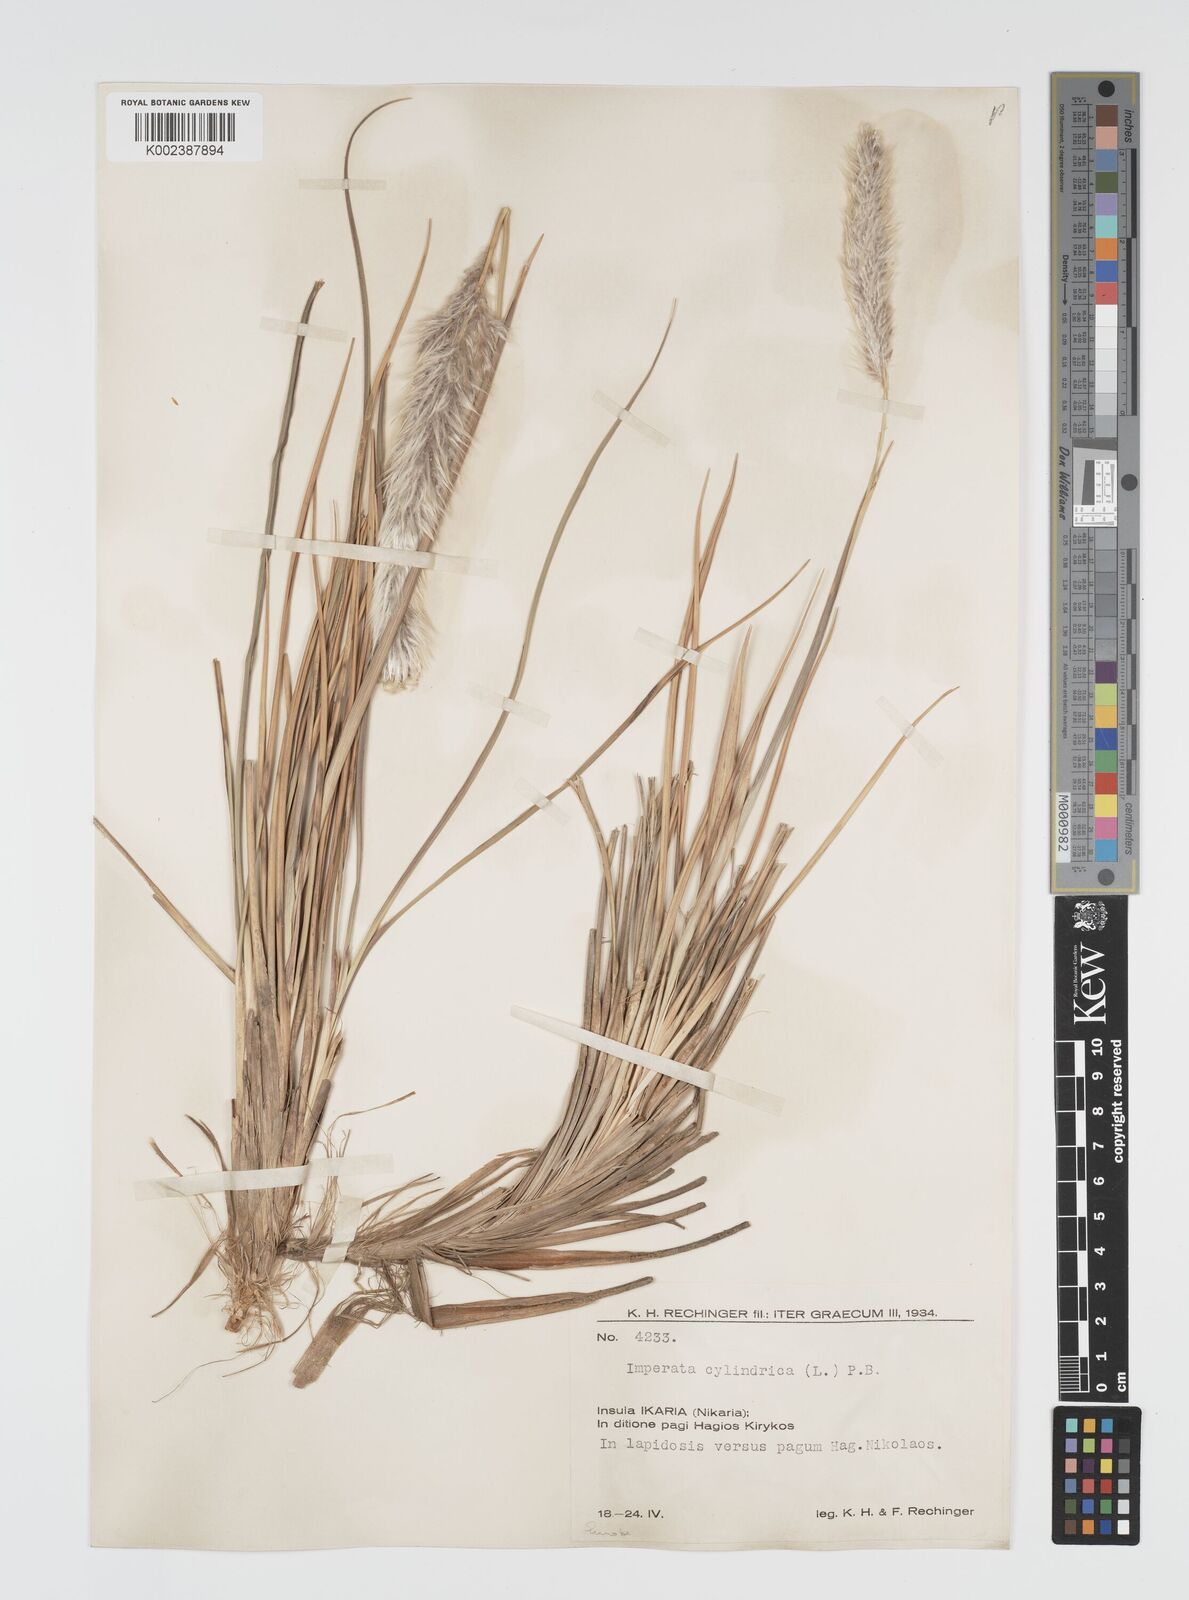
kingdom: Plantae
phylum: Tracheophyta
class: Liliopsida
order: Poales
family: Poaceae
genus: Imperata
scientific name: Imperata cylindrica
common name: Cogongrass
